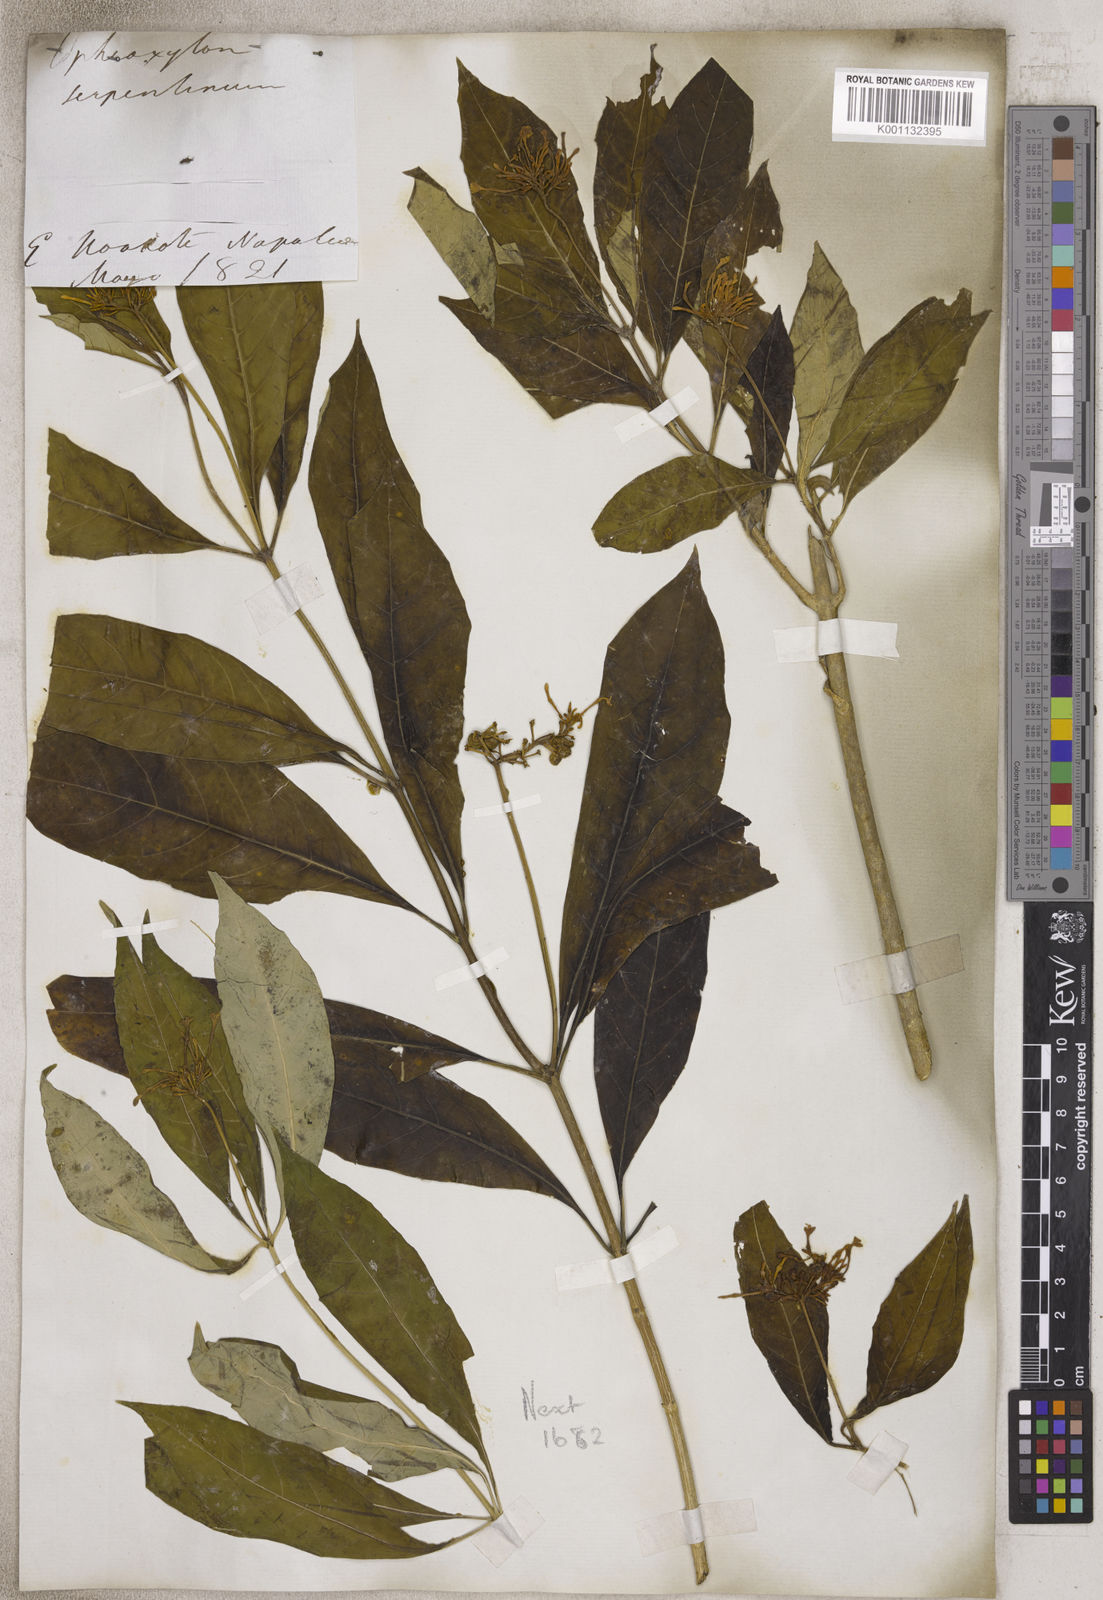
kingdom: Plantae
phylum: Tracheophyta
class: Magnoliopsida
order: Gentianales
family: Apocynaceae
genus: Rauvolfia
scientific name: Rauvolfia
